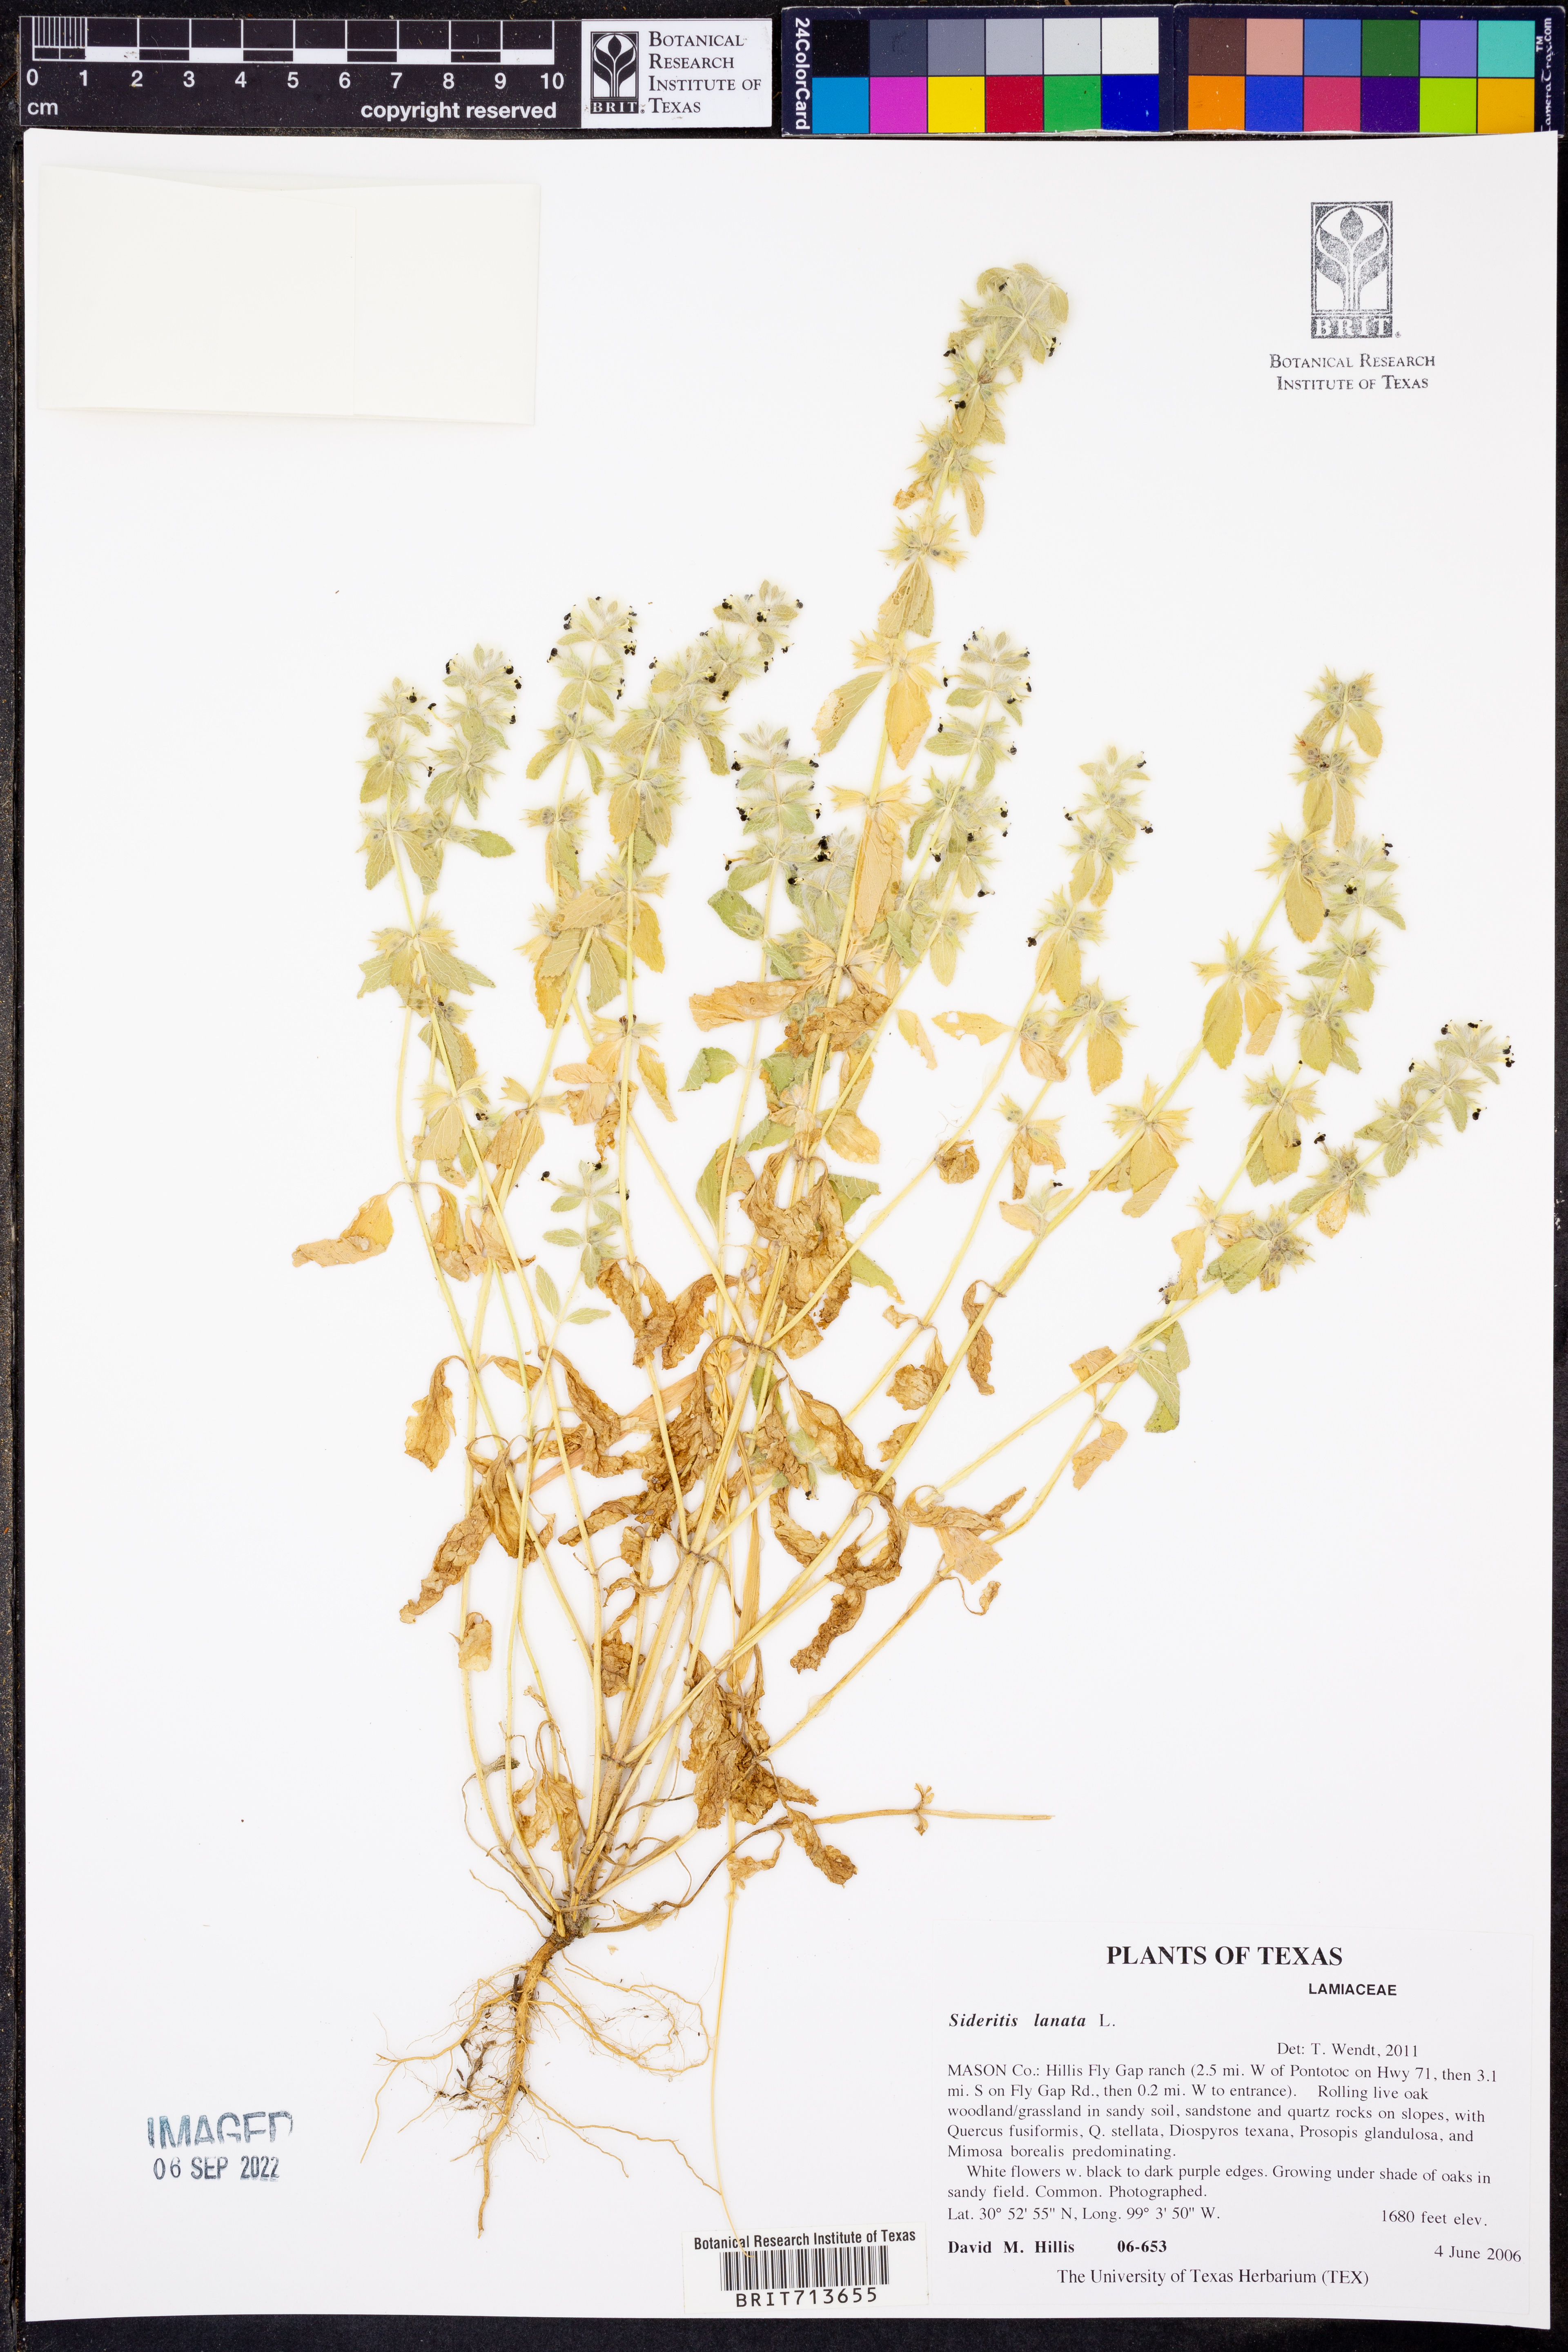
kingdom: Plantae
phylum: Tracheophyta
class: Magnoliopsida
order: Lamiales
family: Lamiaceae
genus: Sideritis
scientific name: Sideritis lanata
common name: Hairy ironwort
